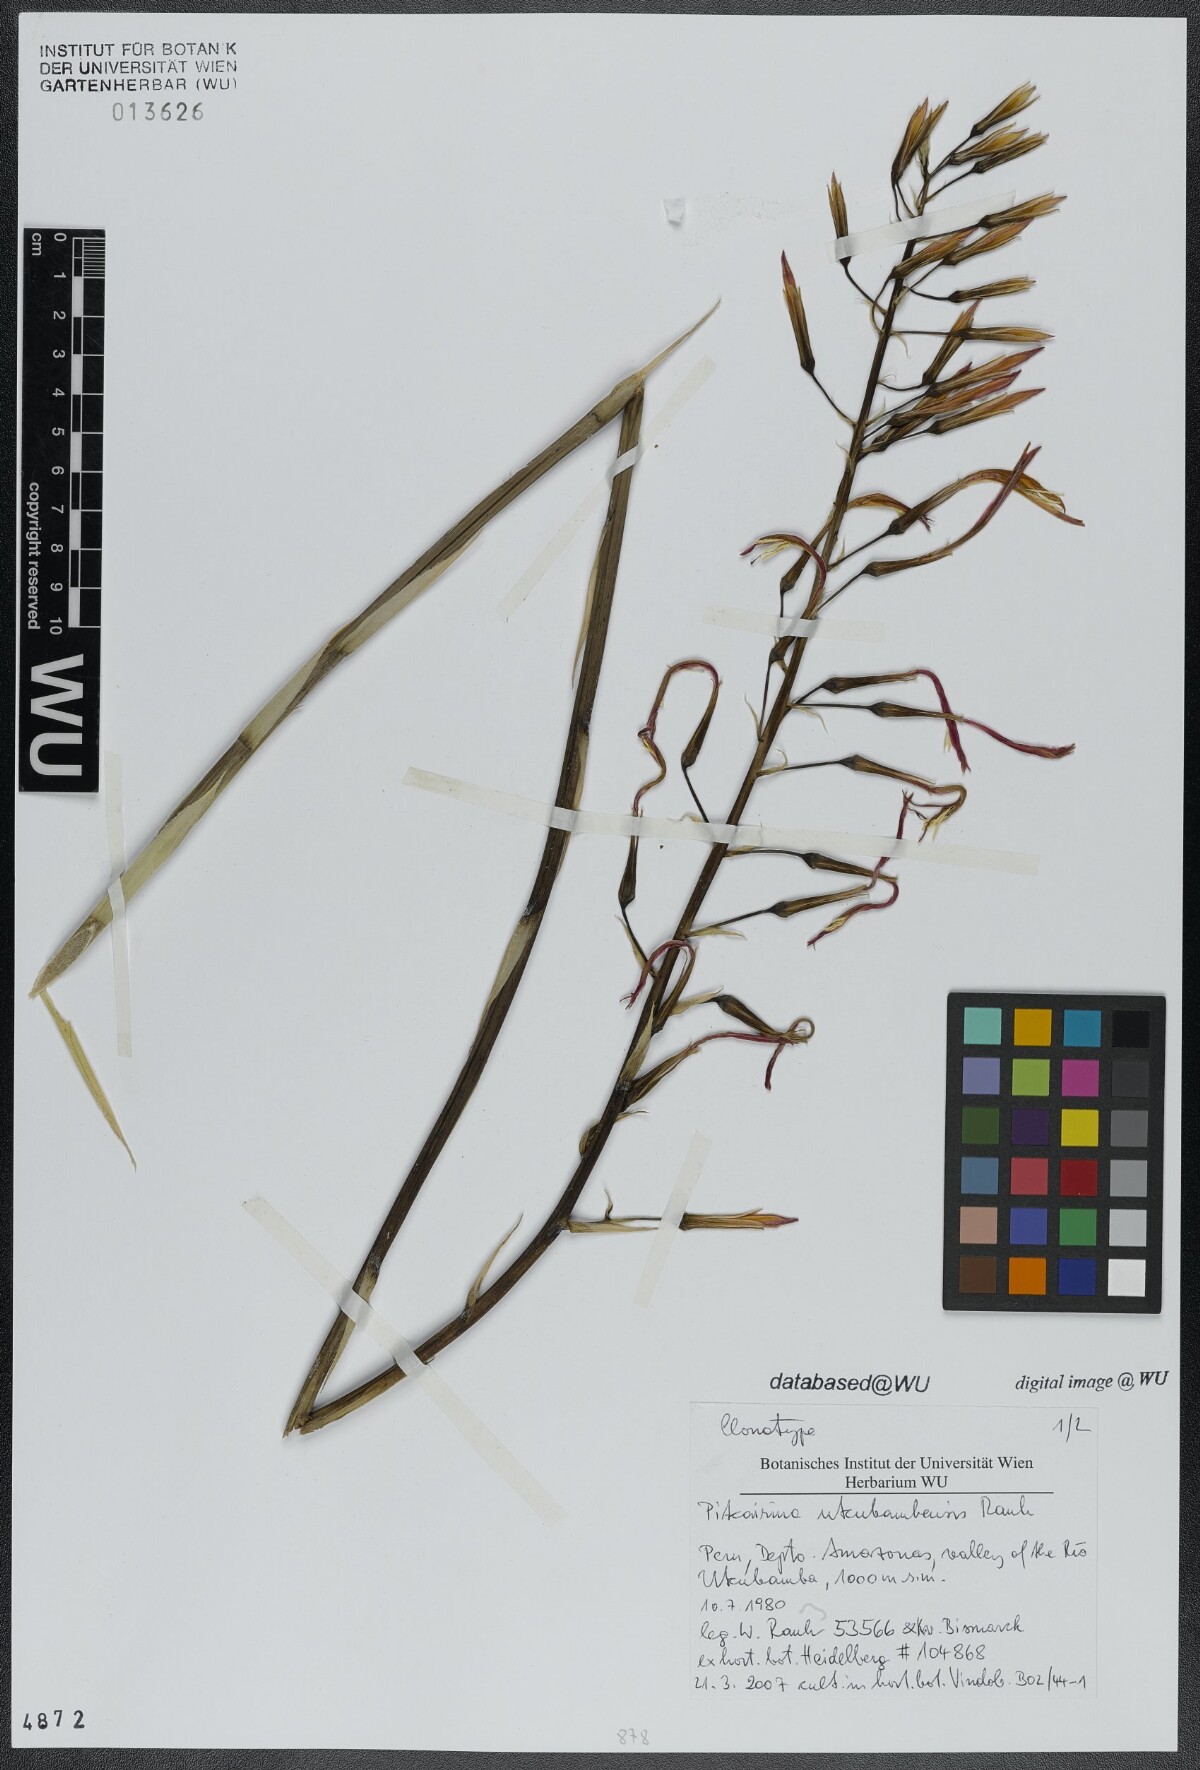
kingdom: Plantae
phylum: Tracheophyta
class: Liliopsida
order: Poales
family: Bromeliaceae
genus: Pitcairnia
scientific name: Pitcairnia utcubambensis
